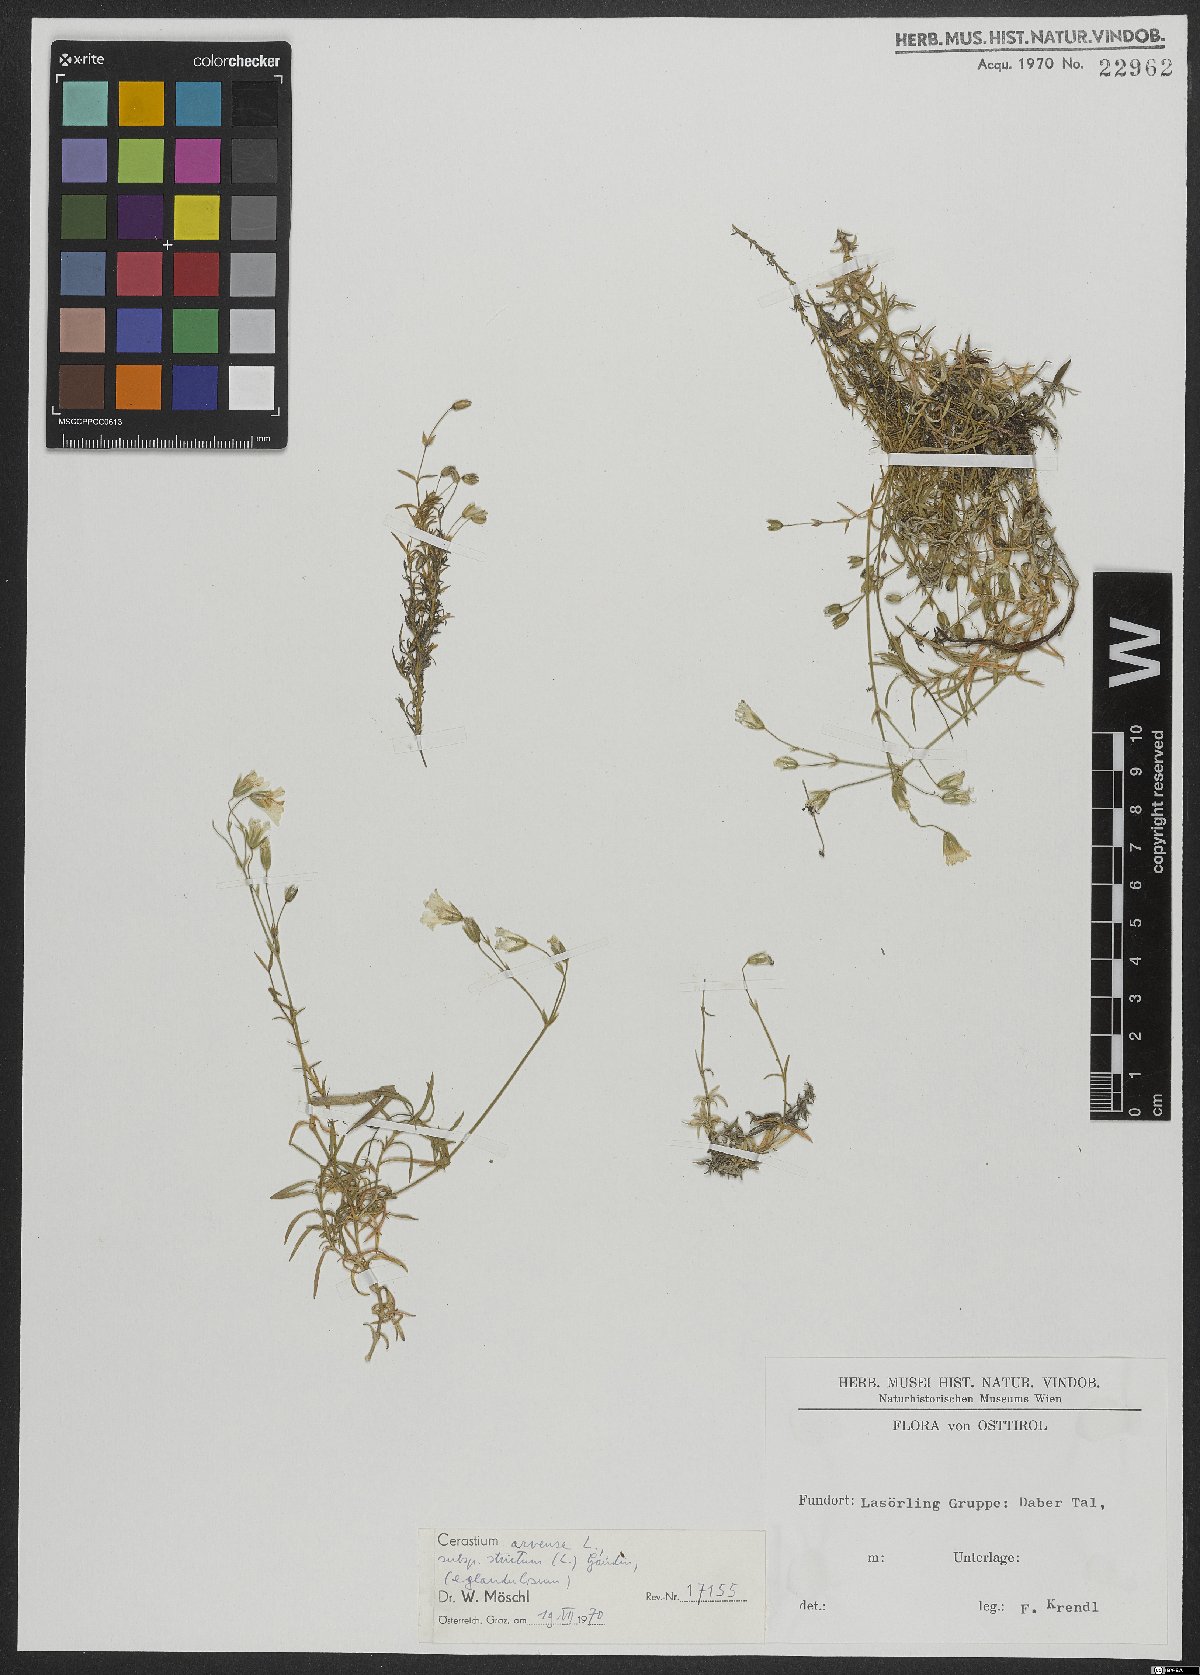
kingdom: Plantae
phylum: Tracheophyta
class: Magnoliopsida
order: Caryophyllales
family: Caryophyllaceae
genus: Cerastium
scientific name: Cerastium elongatum
